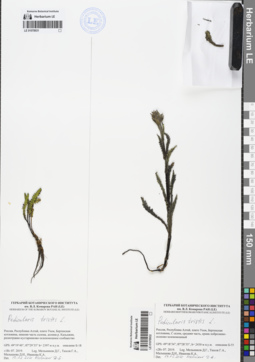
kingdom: Plantae
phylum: Tracheophyta
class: Magnoliopsida
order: Lamiales
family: Orobanchaceae
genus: Pedicularis
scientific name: Pedicularis tristis
